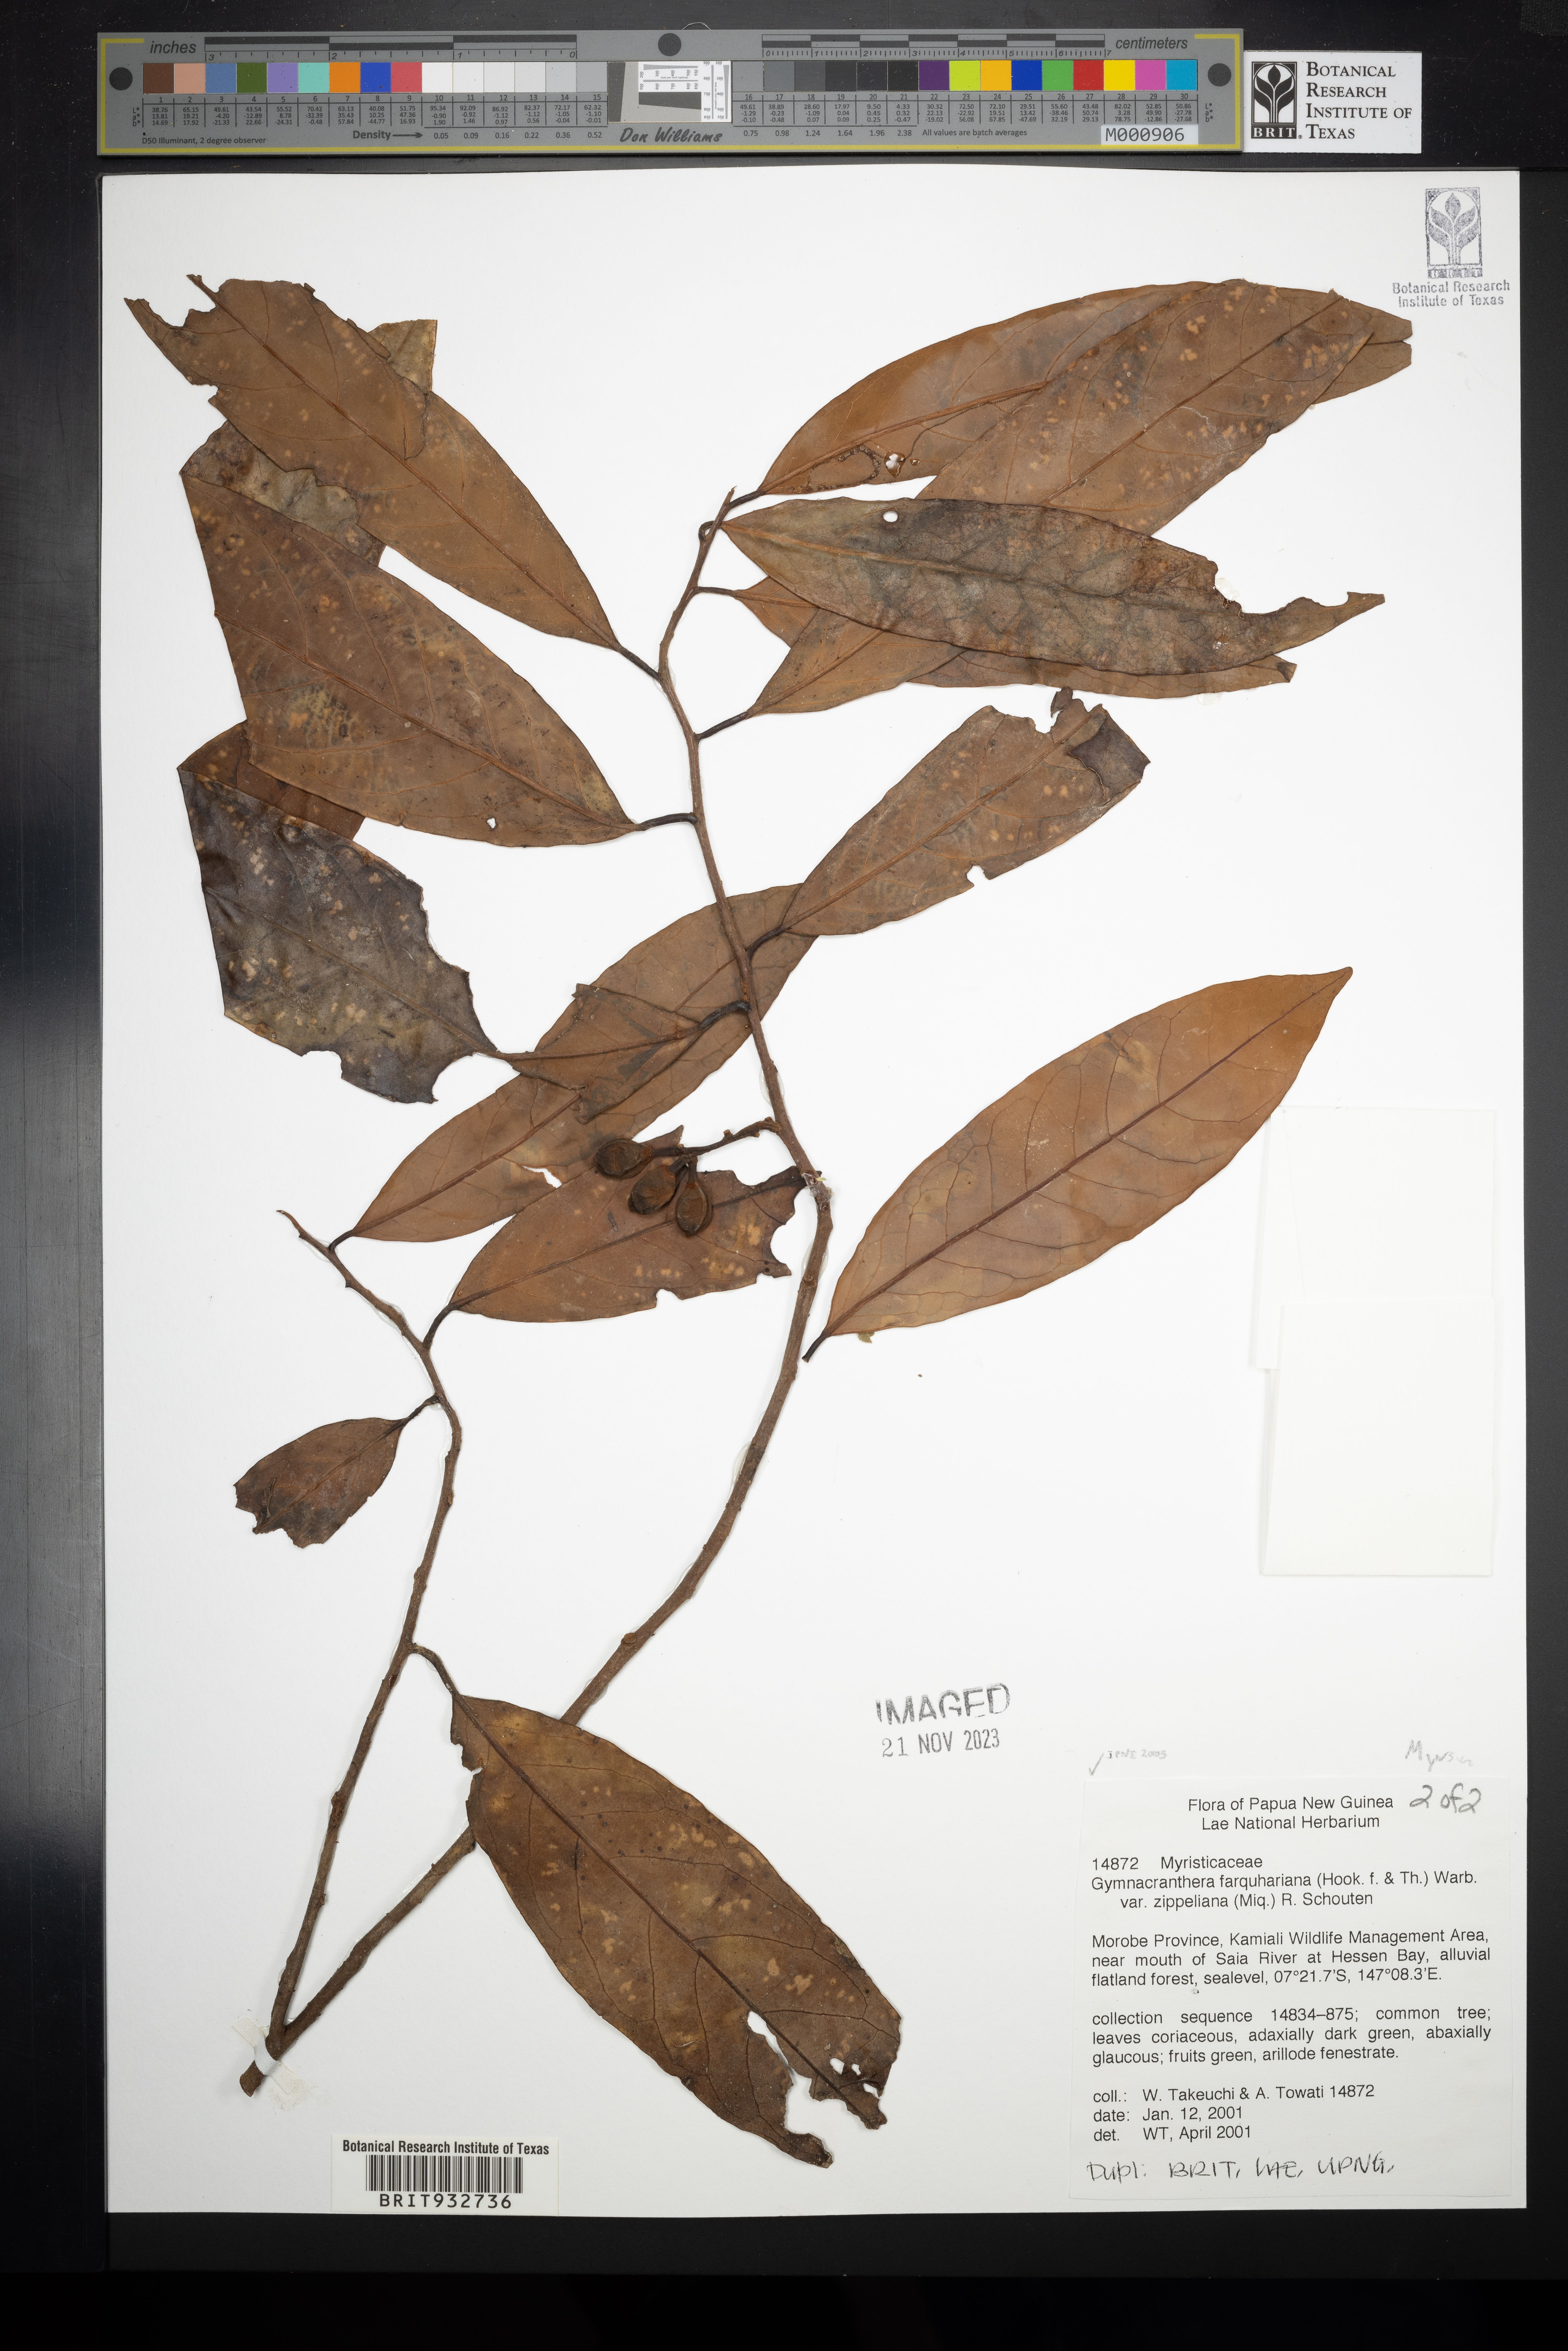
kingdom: Plantae
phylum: Tracheophyta
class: Magnoliopsida
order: Magnoliales
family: Myristicaceae
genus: Gymnacranthera
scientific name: Gymnacranthera
